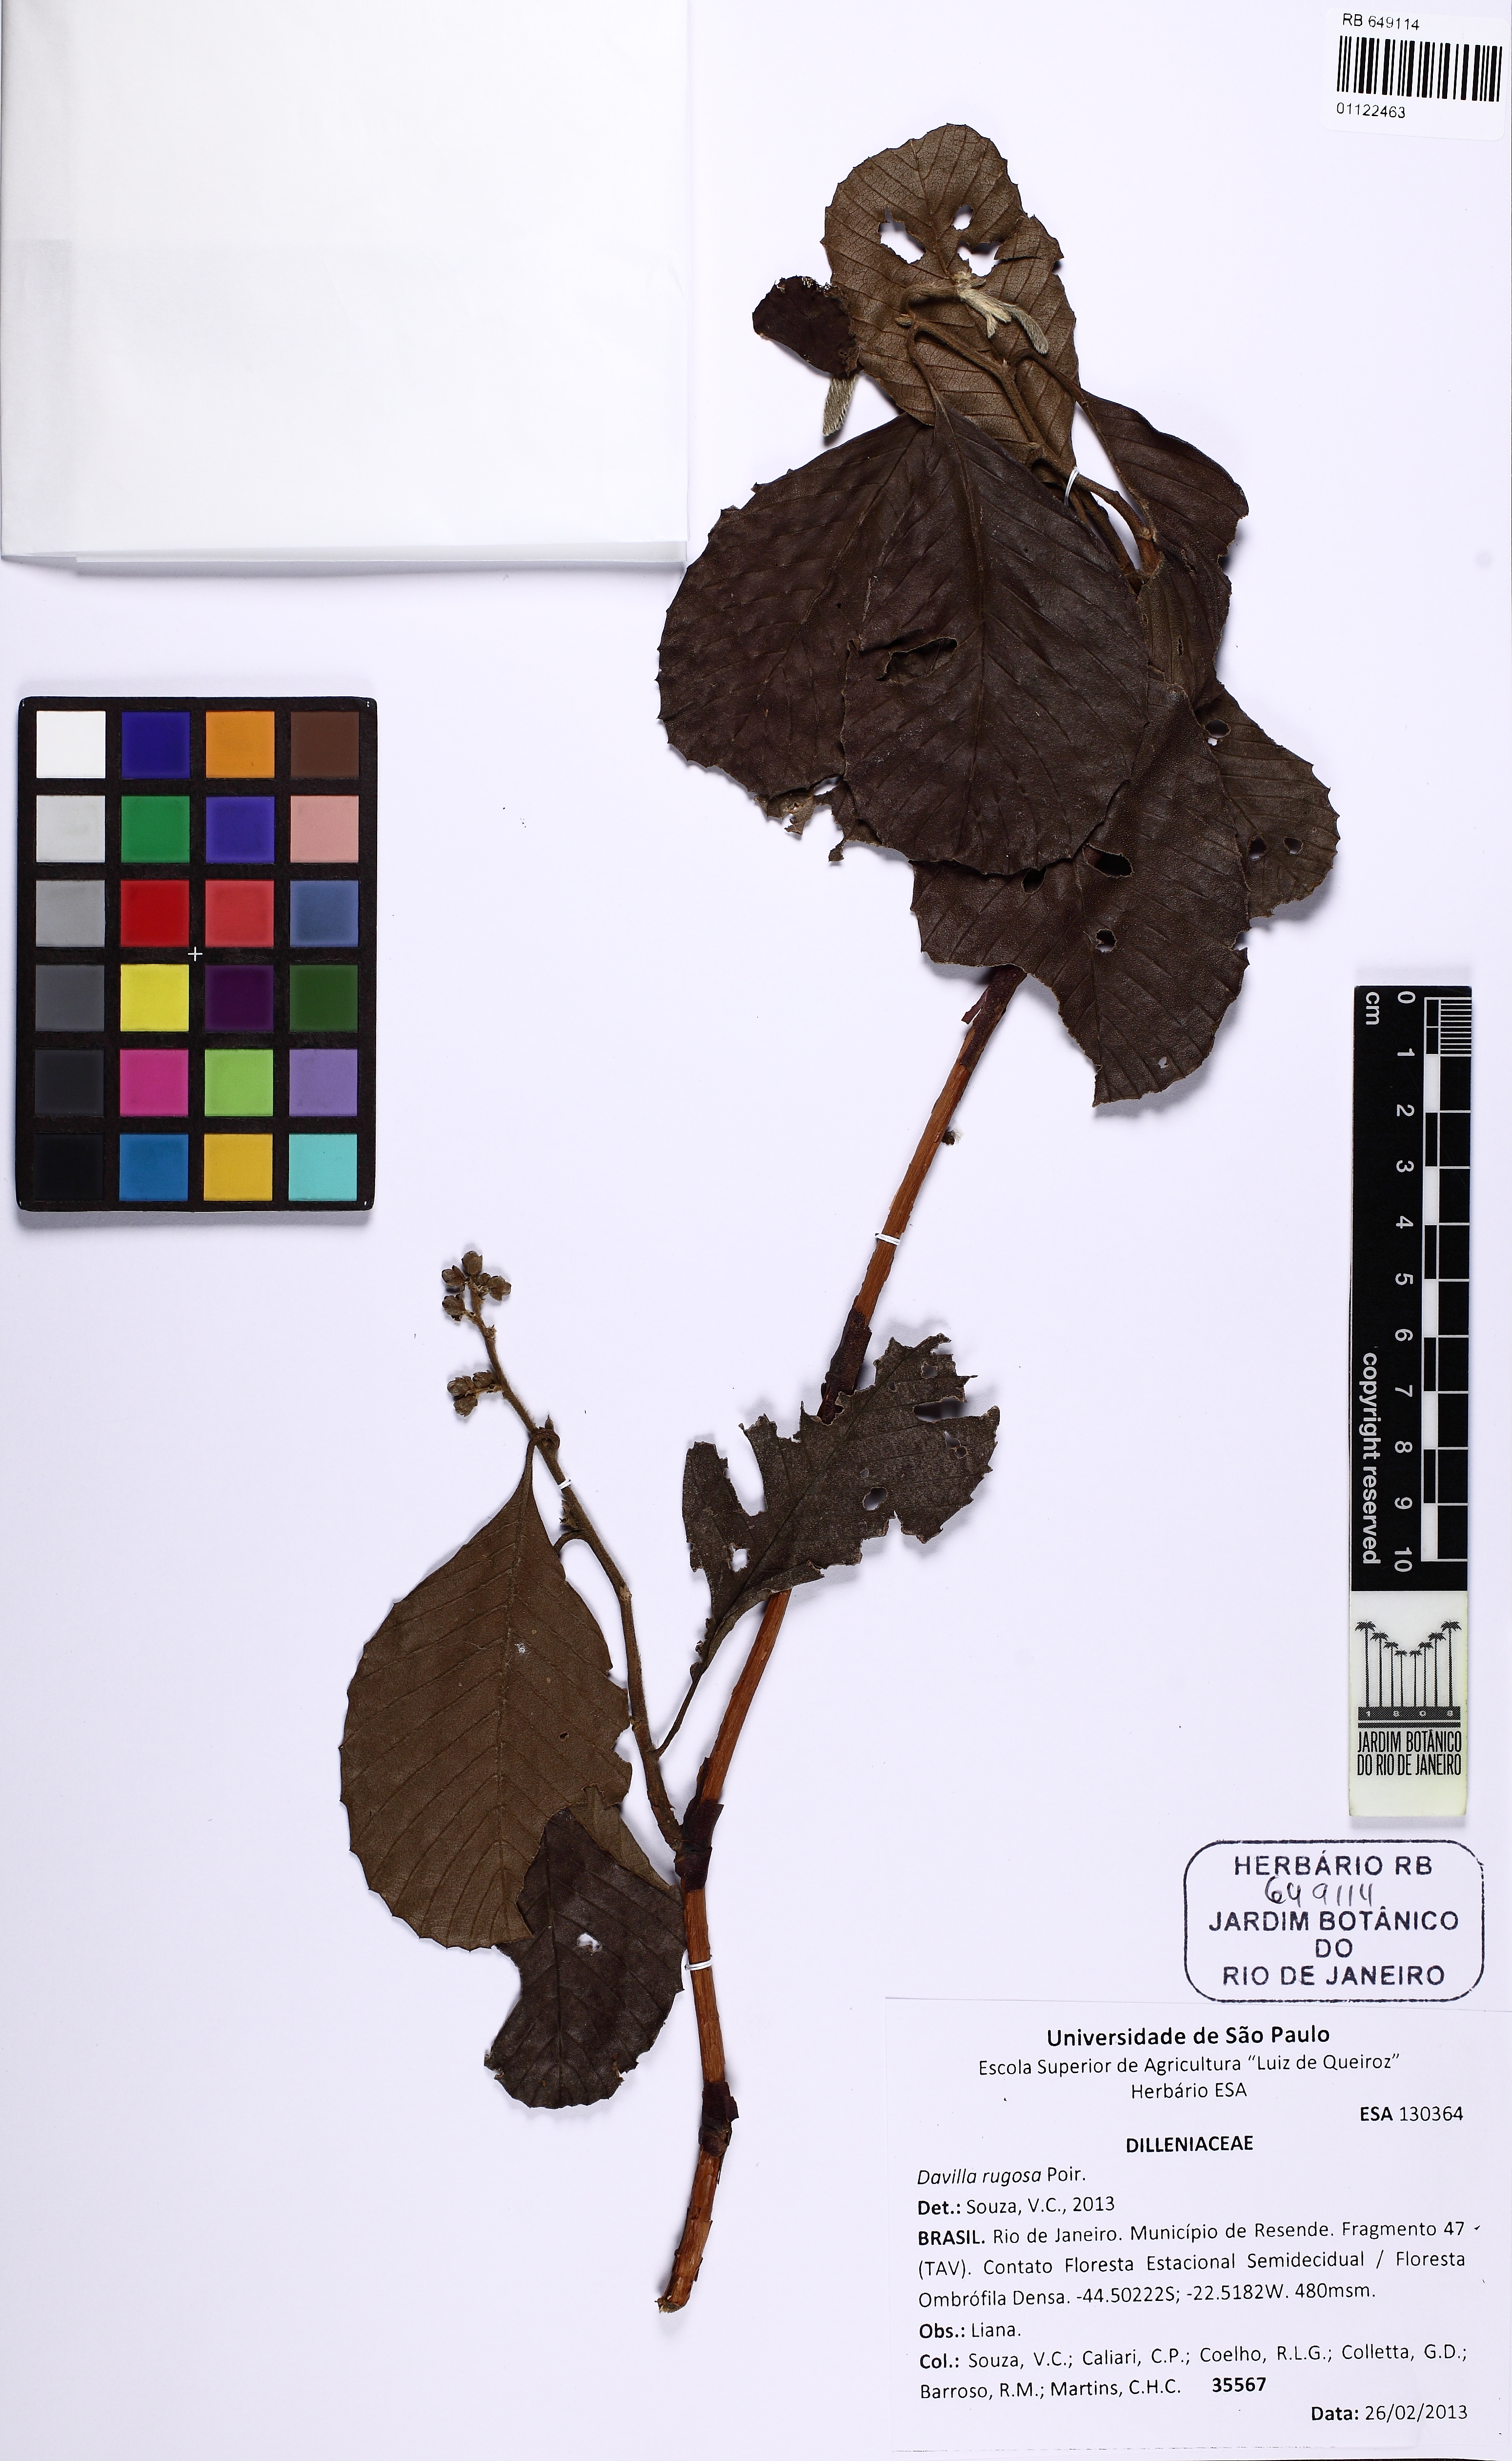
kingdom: Plantae
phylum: Tracheophyta
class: Magnoliopsida
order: Dilleniales
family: Dilleniaceae
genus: Tetracera
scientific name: Tetracera empedoclea
